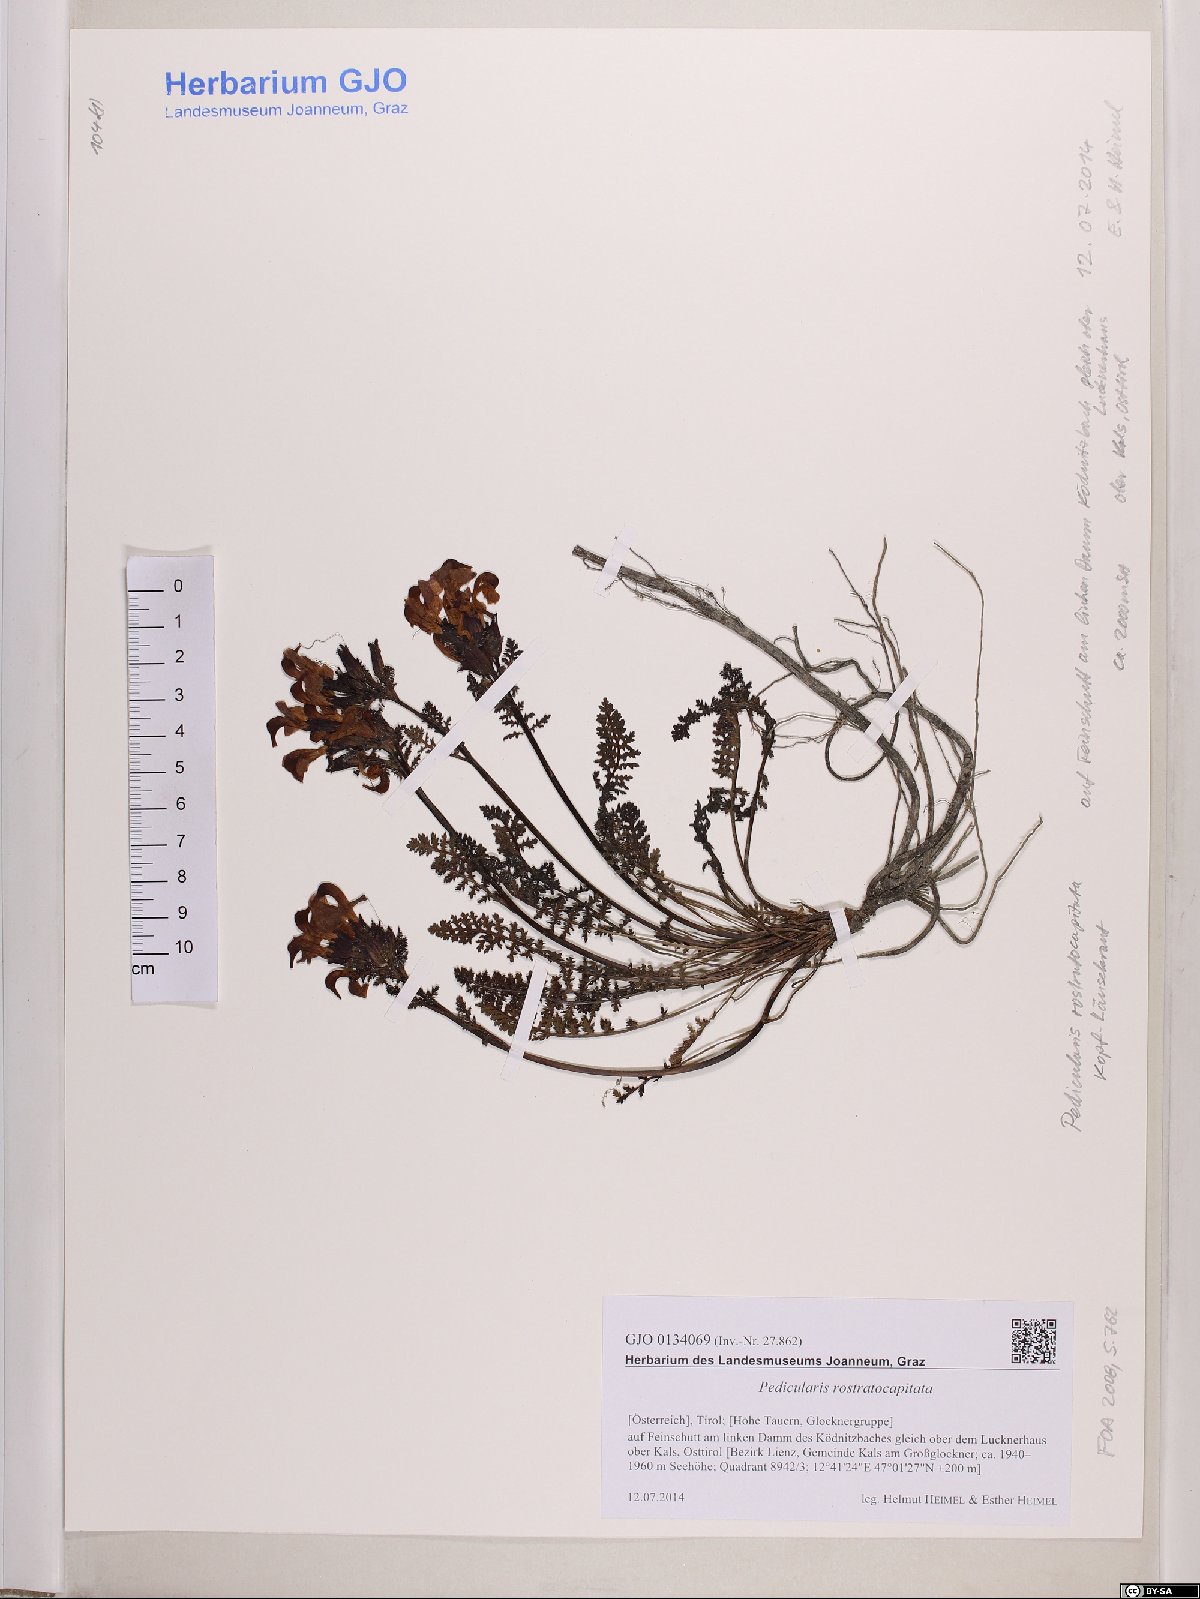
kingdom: Plantae
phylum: Tracheophyta
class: Magnoliopsida
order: Lamiales
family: Orobanchaceae
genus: Pedicularis
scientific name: Pedicularis rostratocapitata
